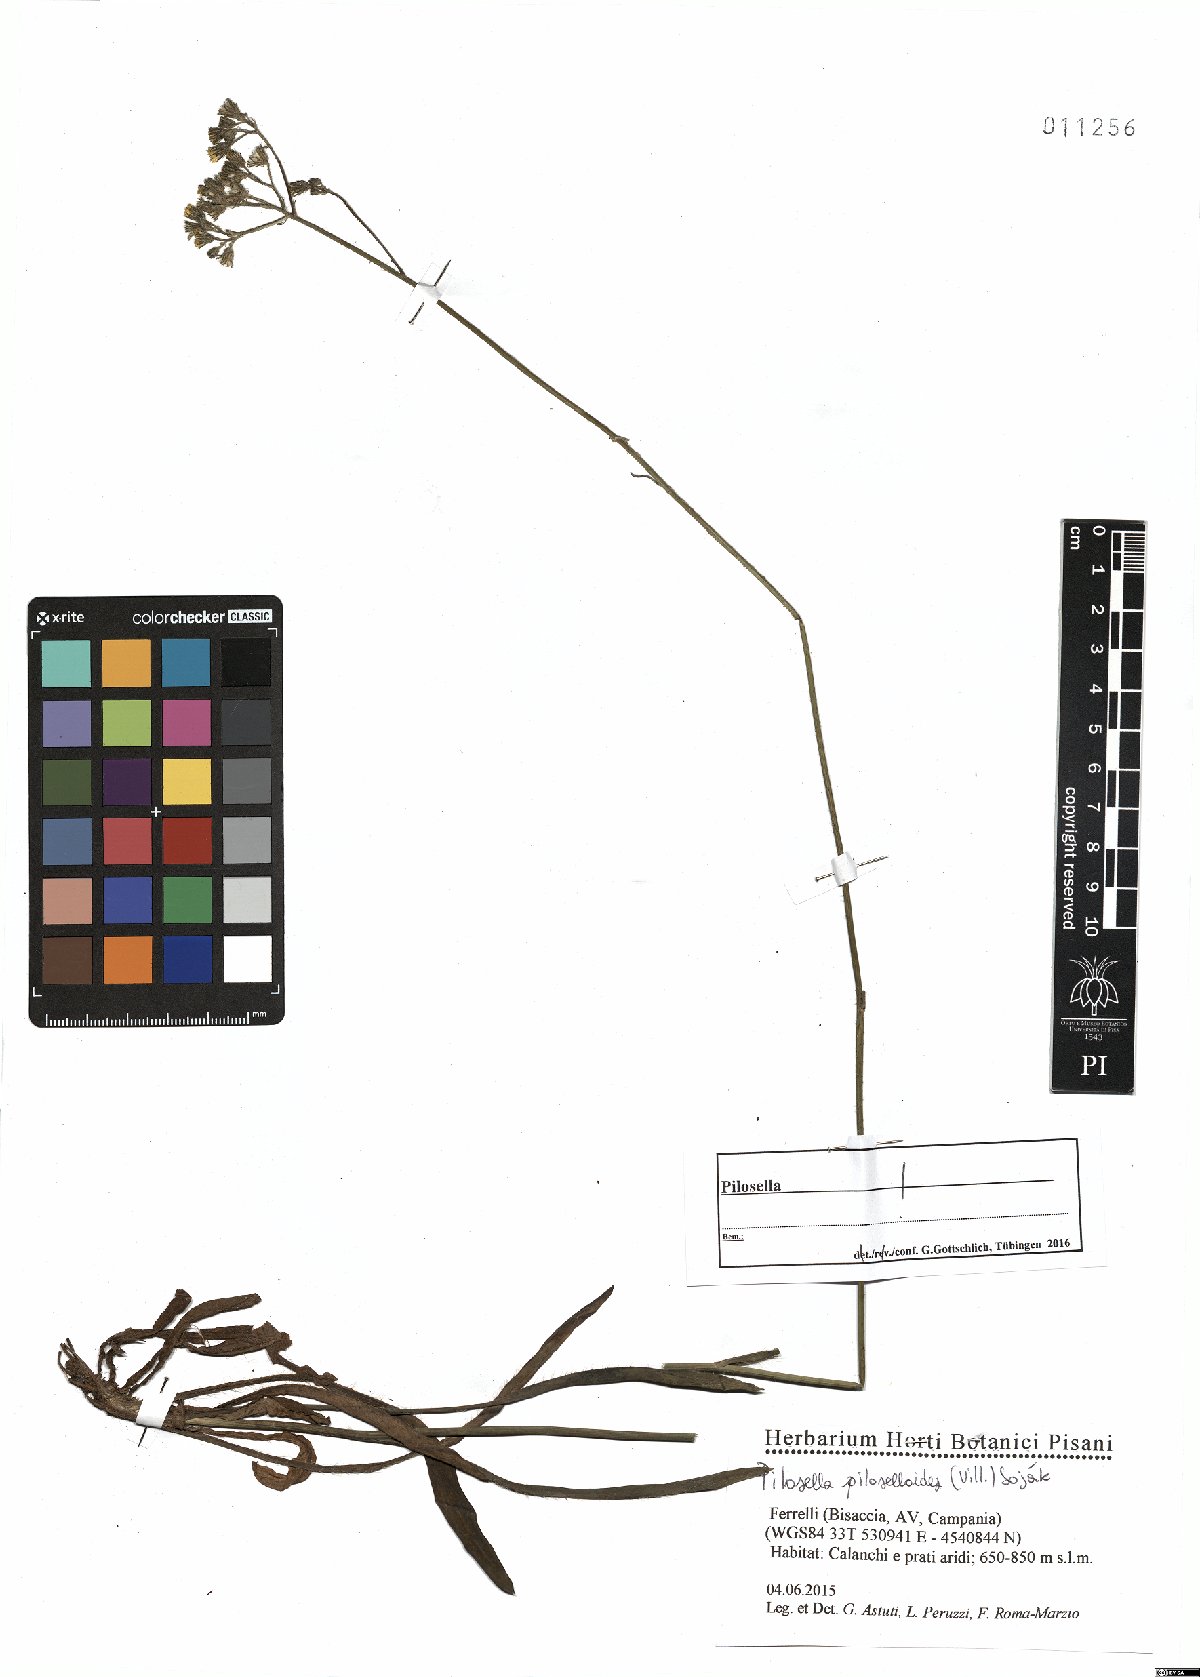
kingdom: Plantae
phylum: Tracheophyta
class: Magnoliopsida
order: Asterales
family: Asteraceae
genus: Pilosella
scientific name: Pilosella piloselloides
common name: Glaucous king-devil
